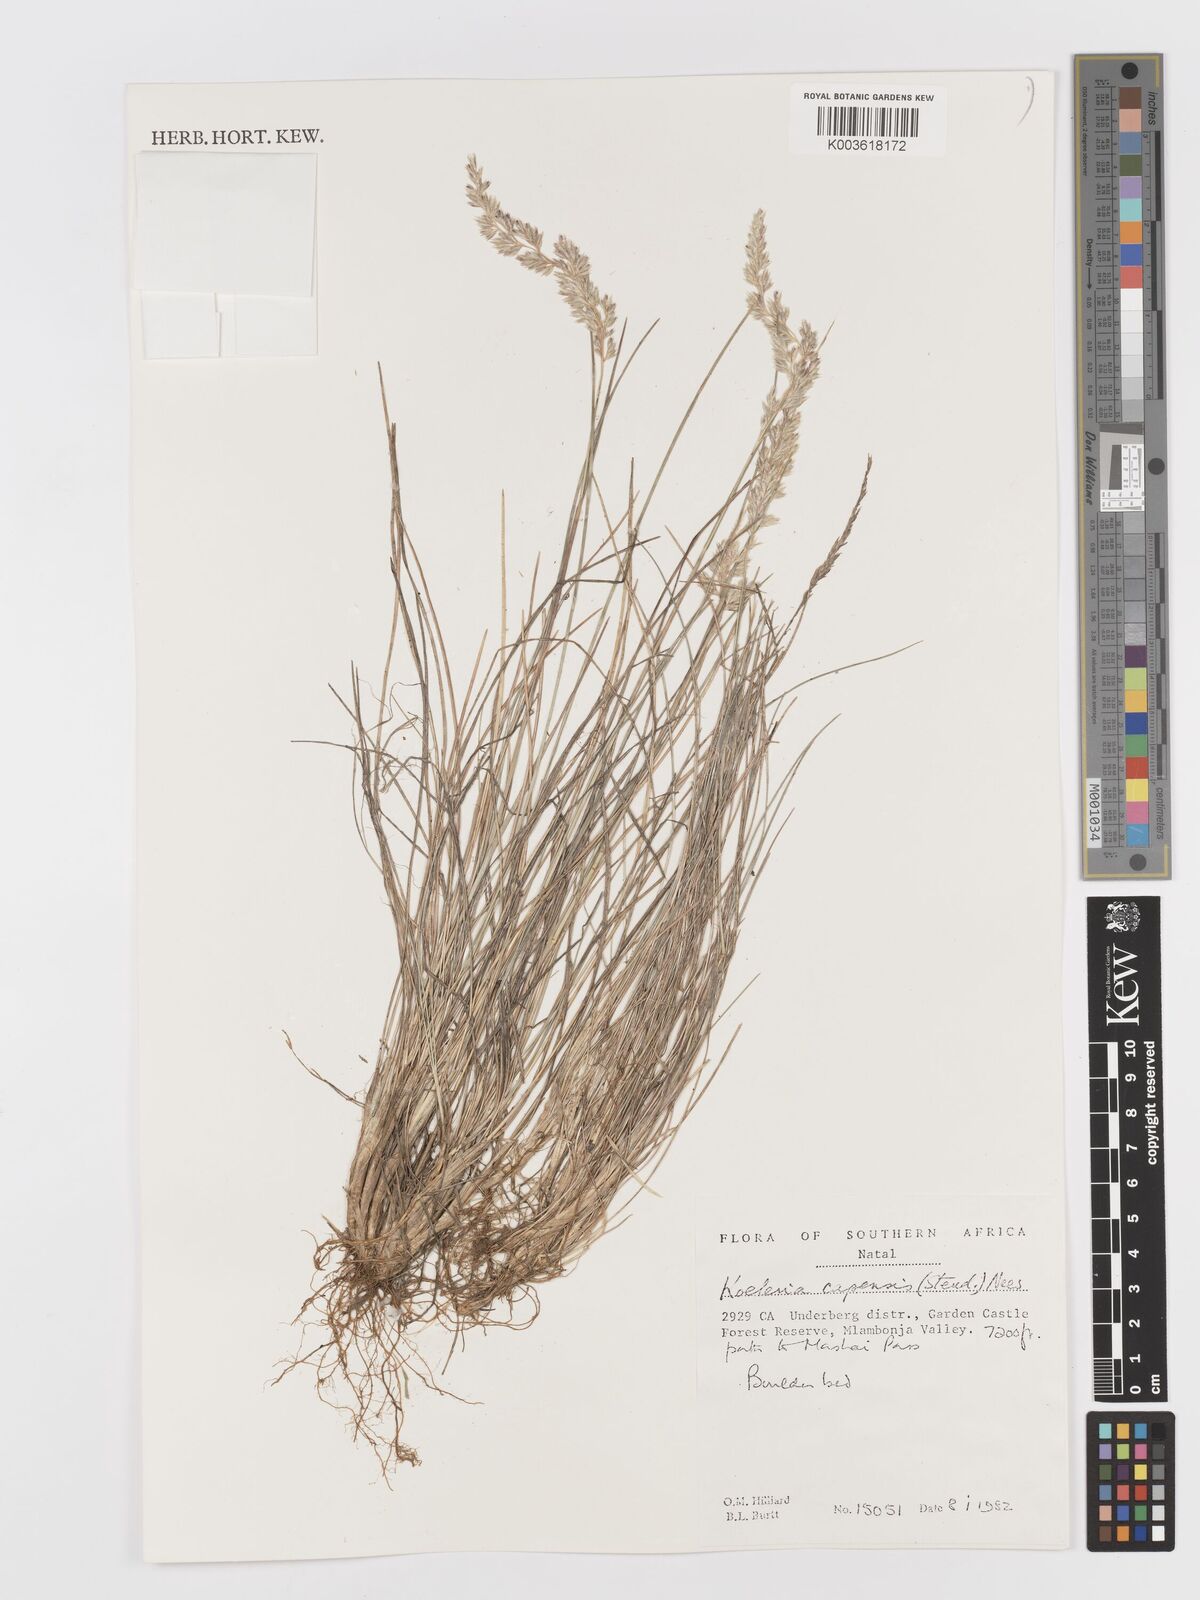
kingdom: Plantae
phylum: Tracheophyta
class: Liliopsida
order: Poales
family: Poaceae
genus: Koeleria
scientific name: Koeleria capensis
